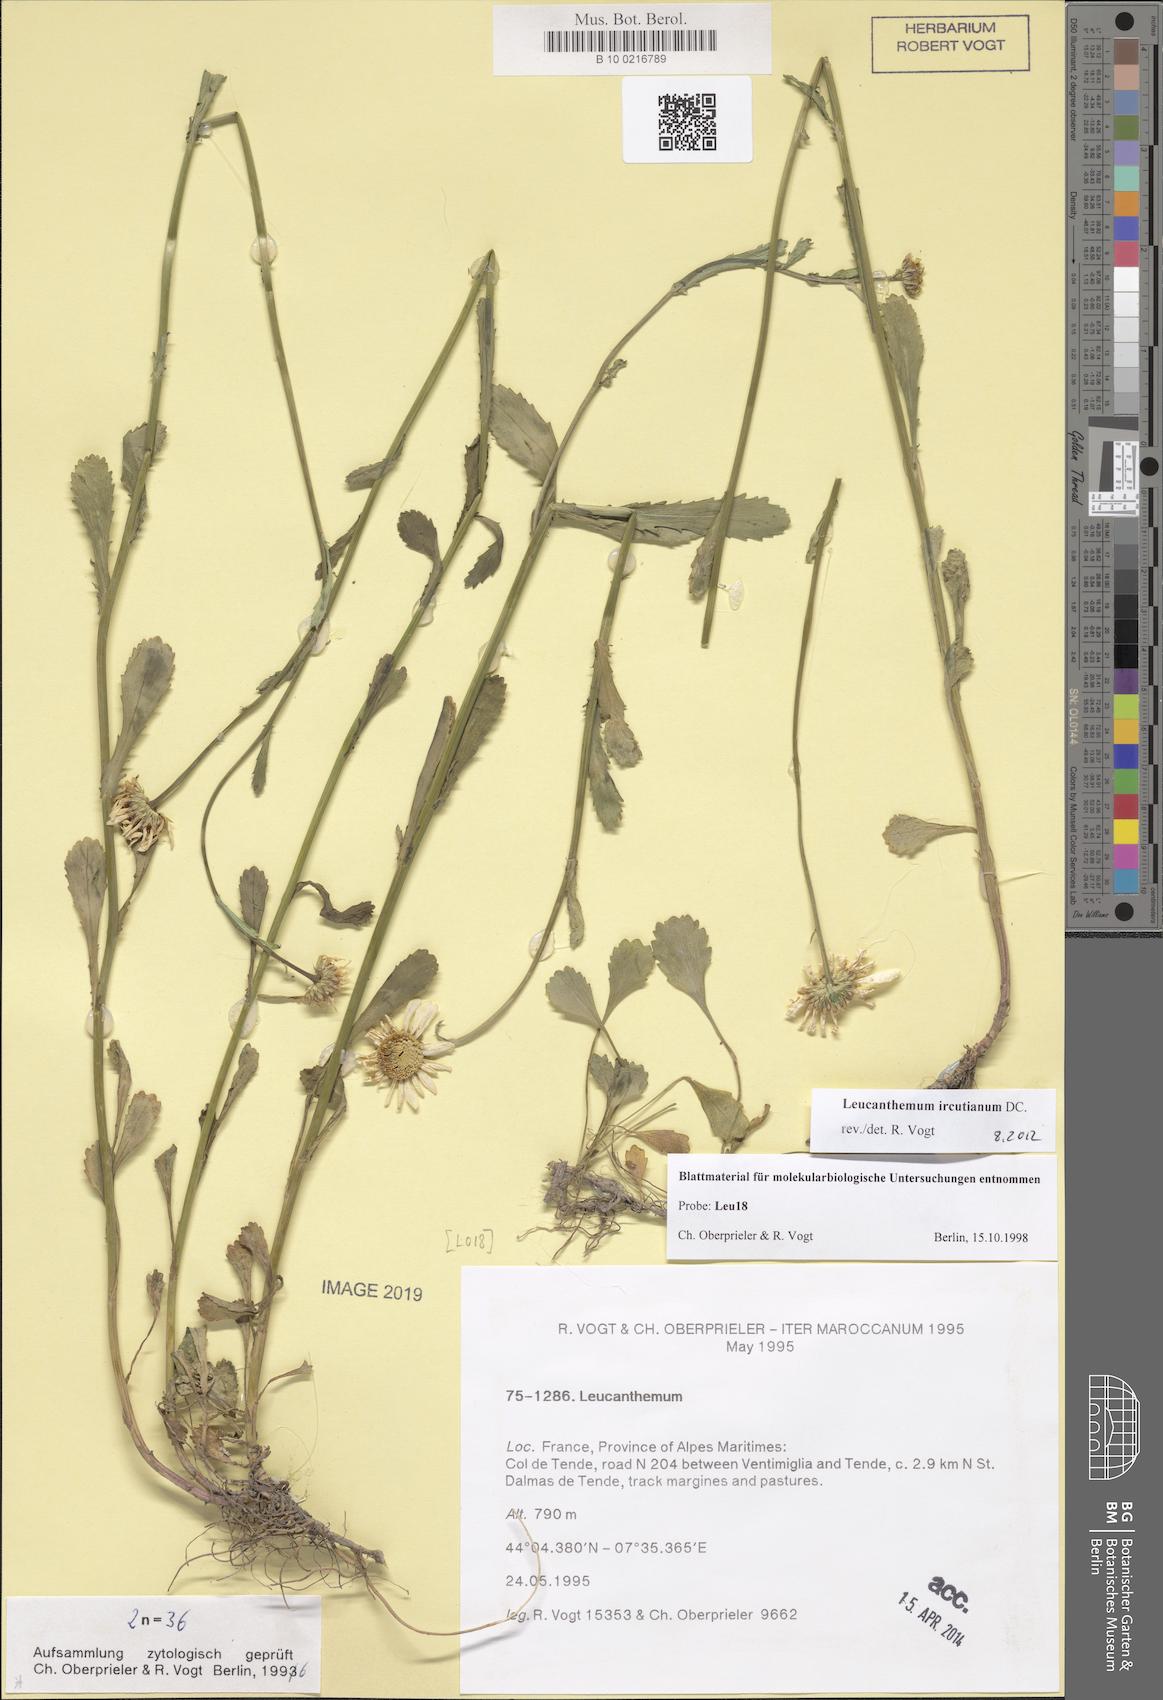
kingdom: Plantae
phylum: Tracheophyta
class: Magnoliopsida
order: Asterales
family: Asteraceae
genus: Leucanthemum
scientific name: Leucanthemum ircutianum
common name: Daisy
